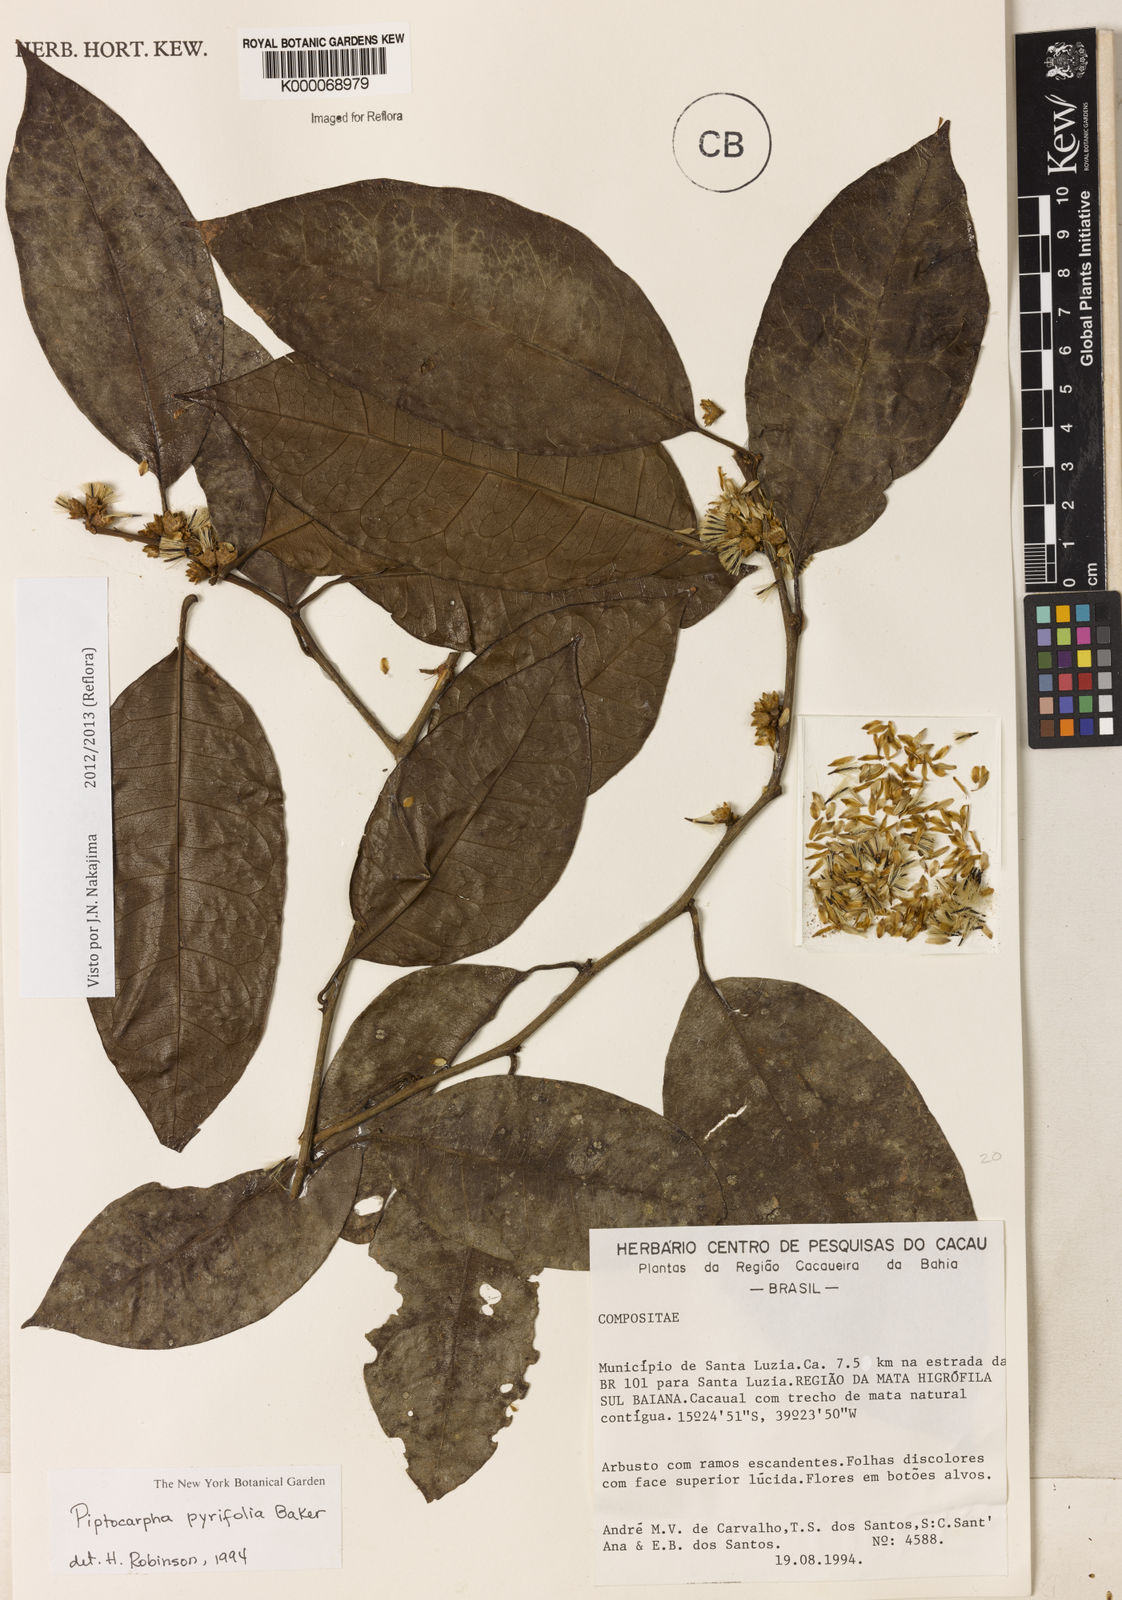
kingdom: Plantae
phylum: Tracheophyta
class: Magnoliopsida
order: Asterales
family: Asteraceae
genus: Piptocarpha
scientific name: Piptocarpha pyrifolia
